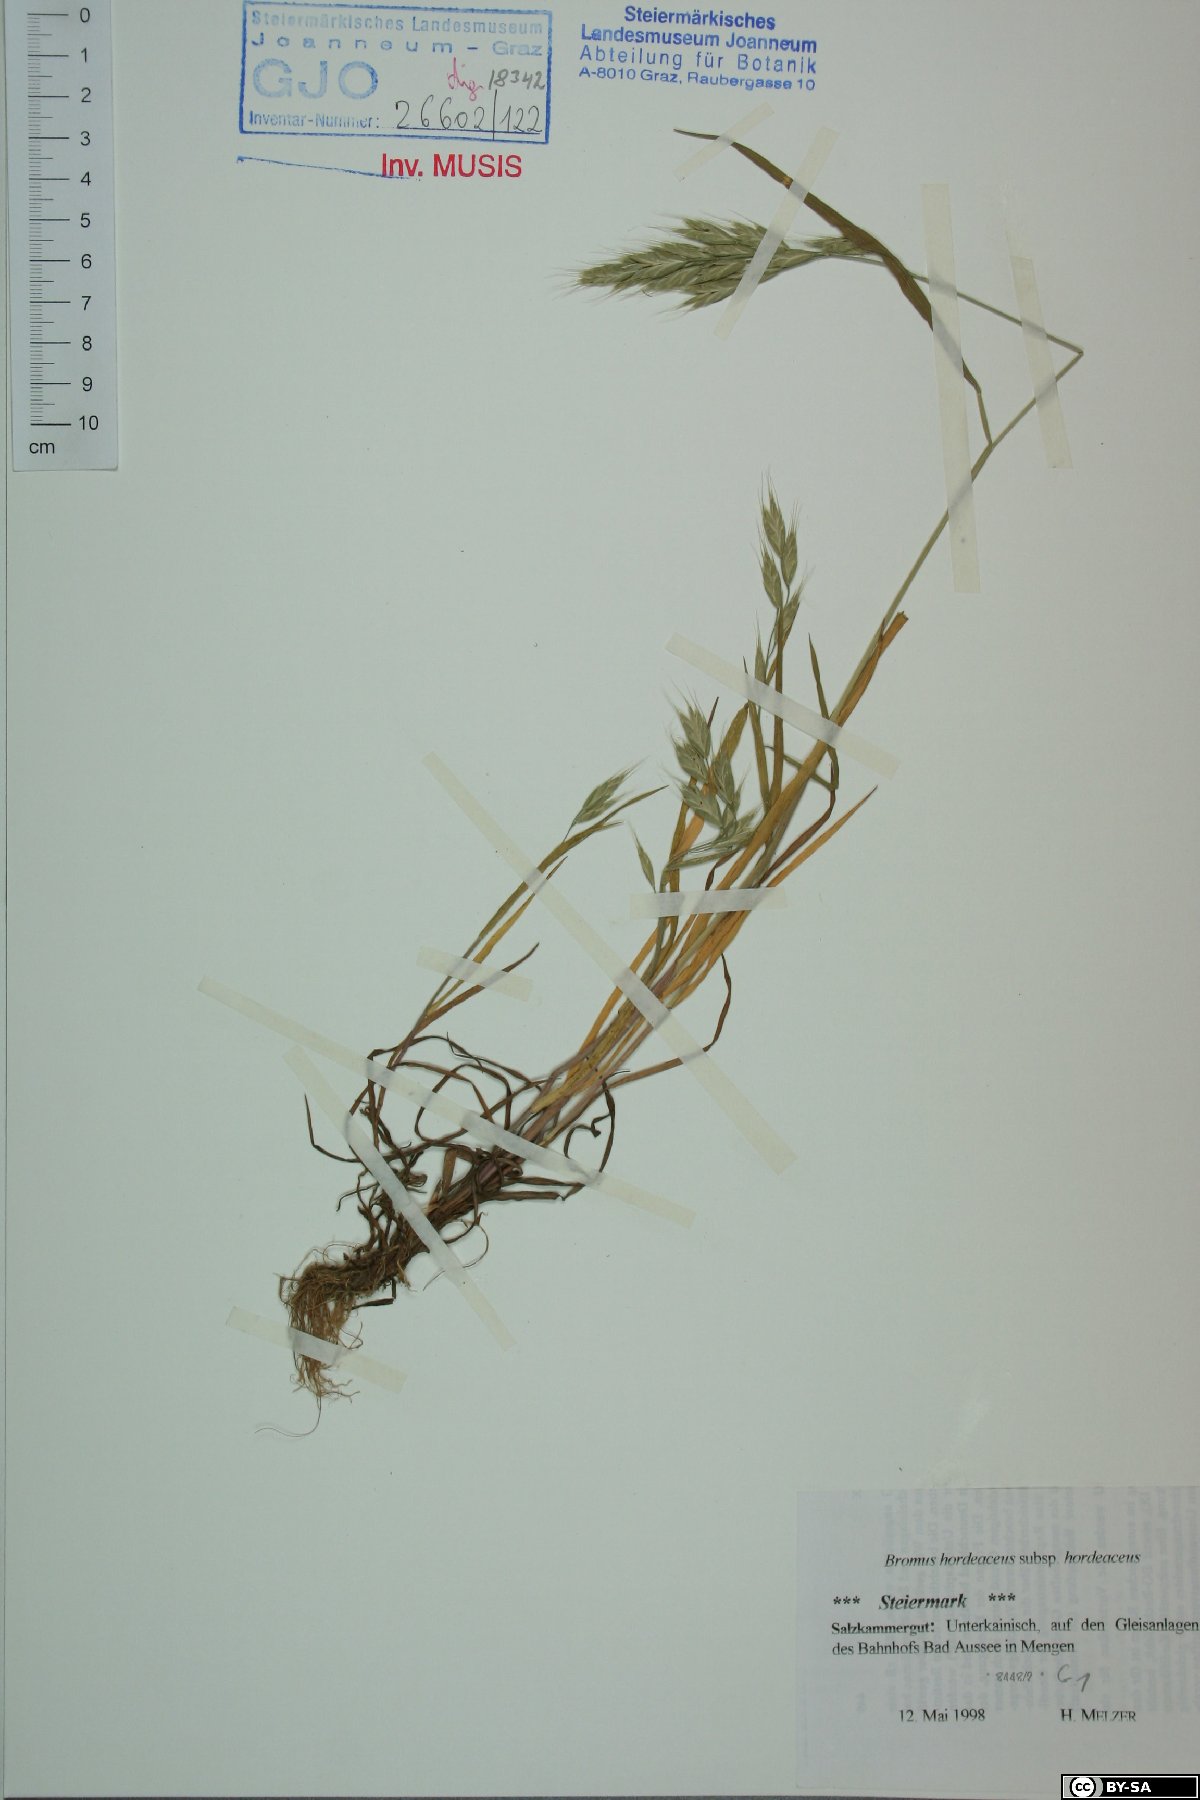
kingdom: Plantae
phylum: Tracheophyta
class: Liliopsida
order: Poales
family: Poaceae
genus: Bromus
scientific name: Bromus hordeaceus
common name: Soft brome
